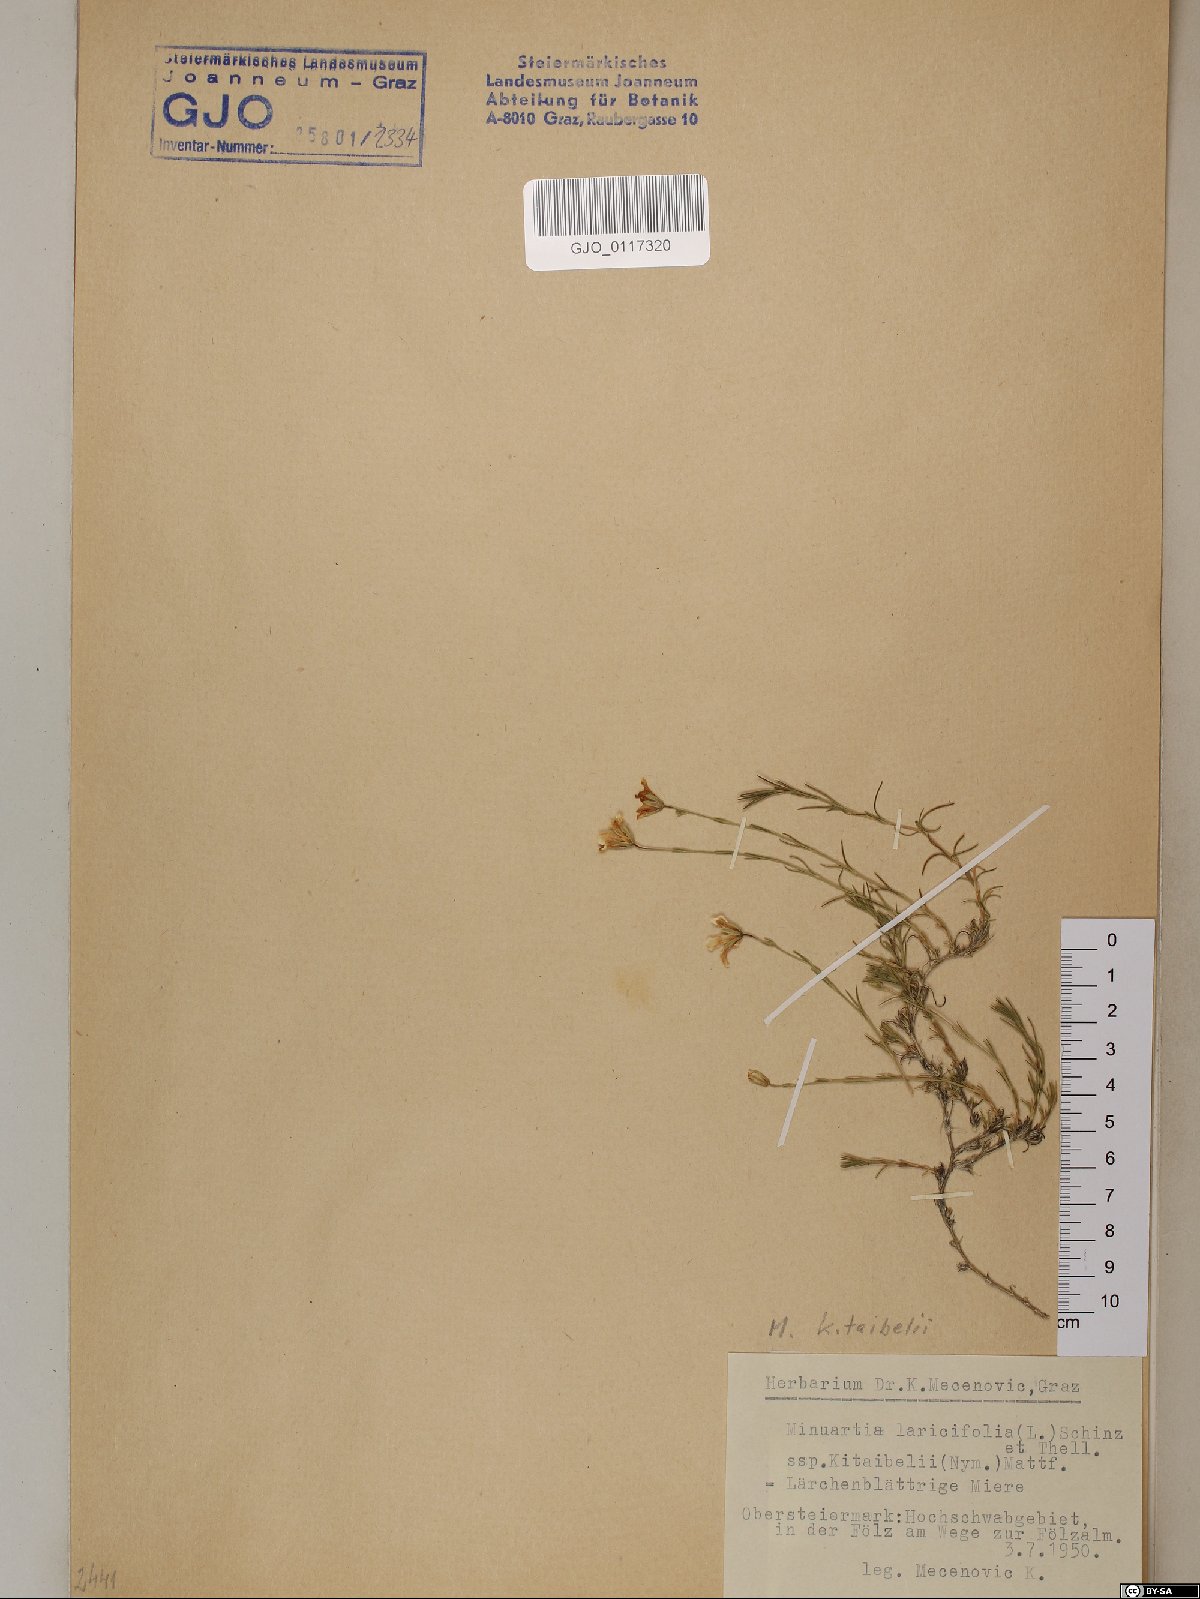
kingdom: Plantae
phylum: Tracheophyta
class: Magnoliopsida
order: Caryophyllales
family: Caryophyllaceae
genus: Cherleria
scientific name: Cherleria langii
